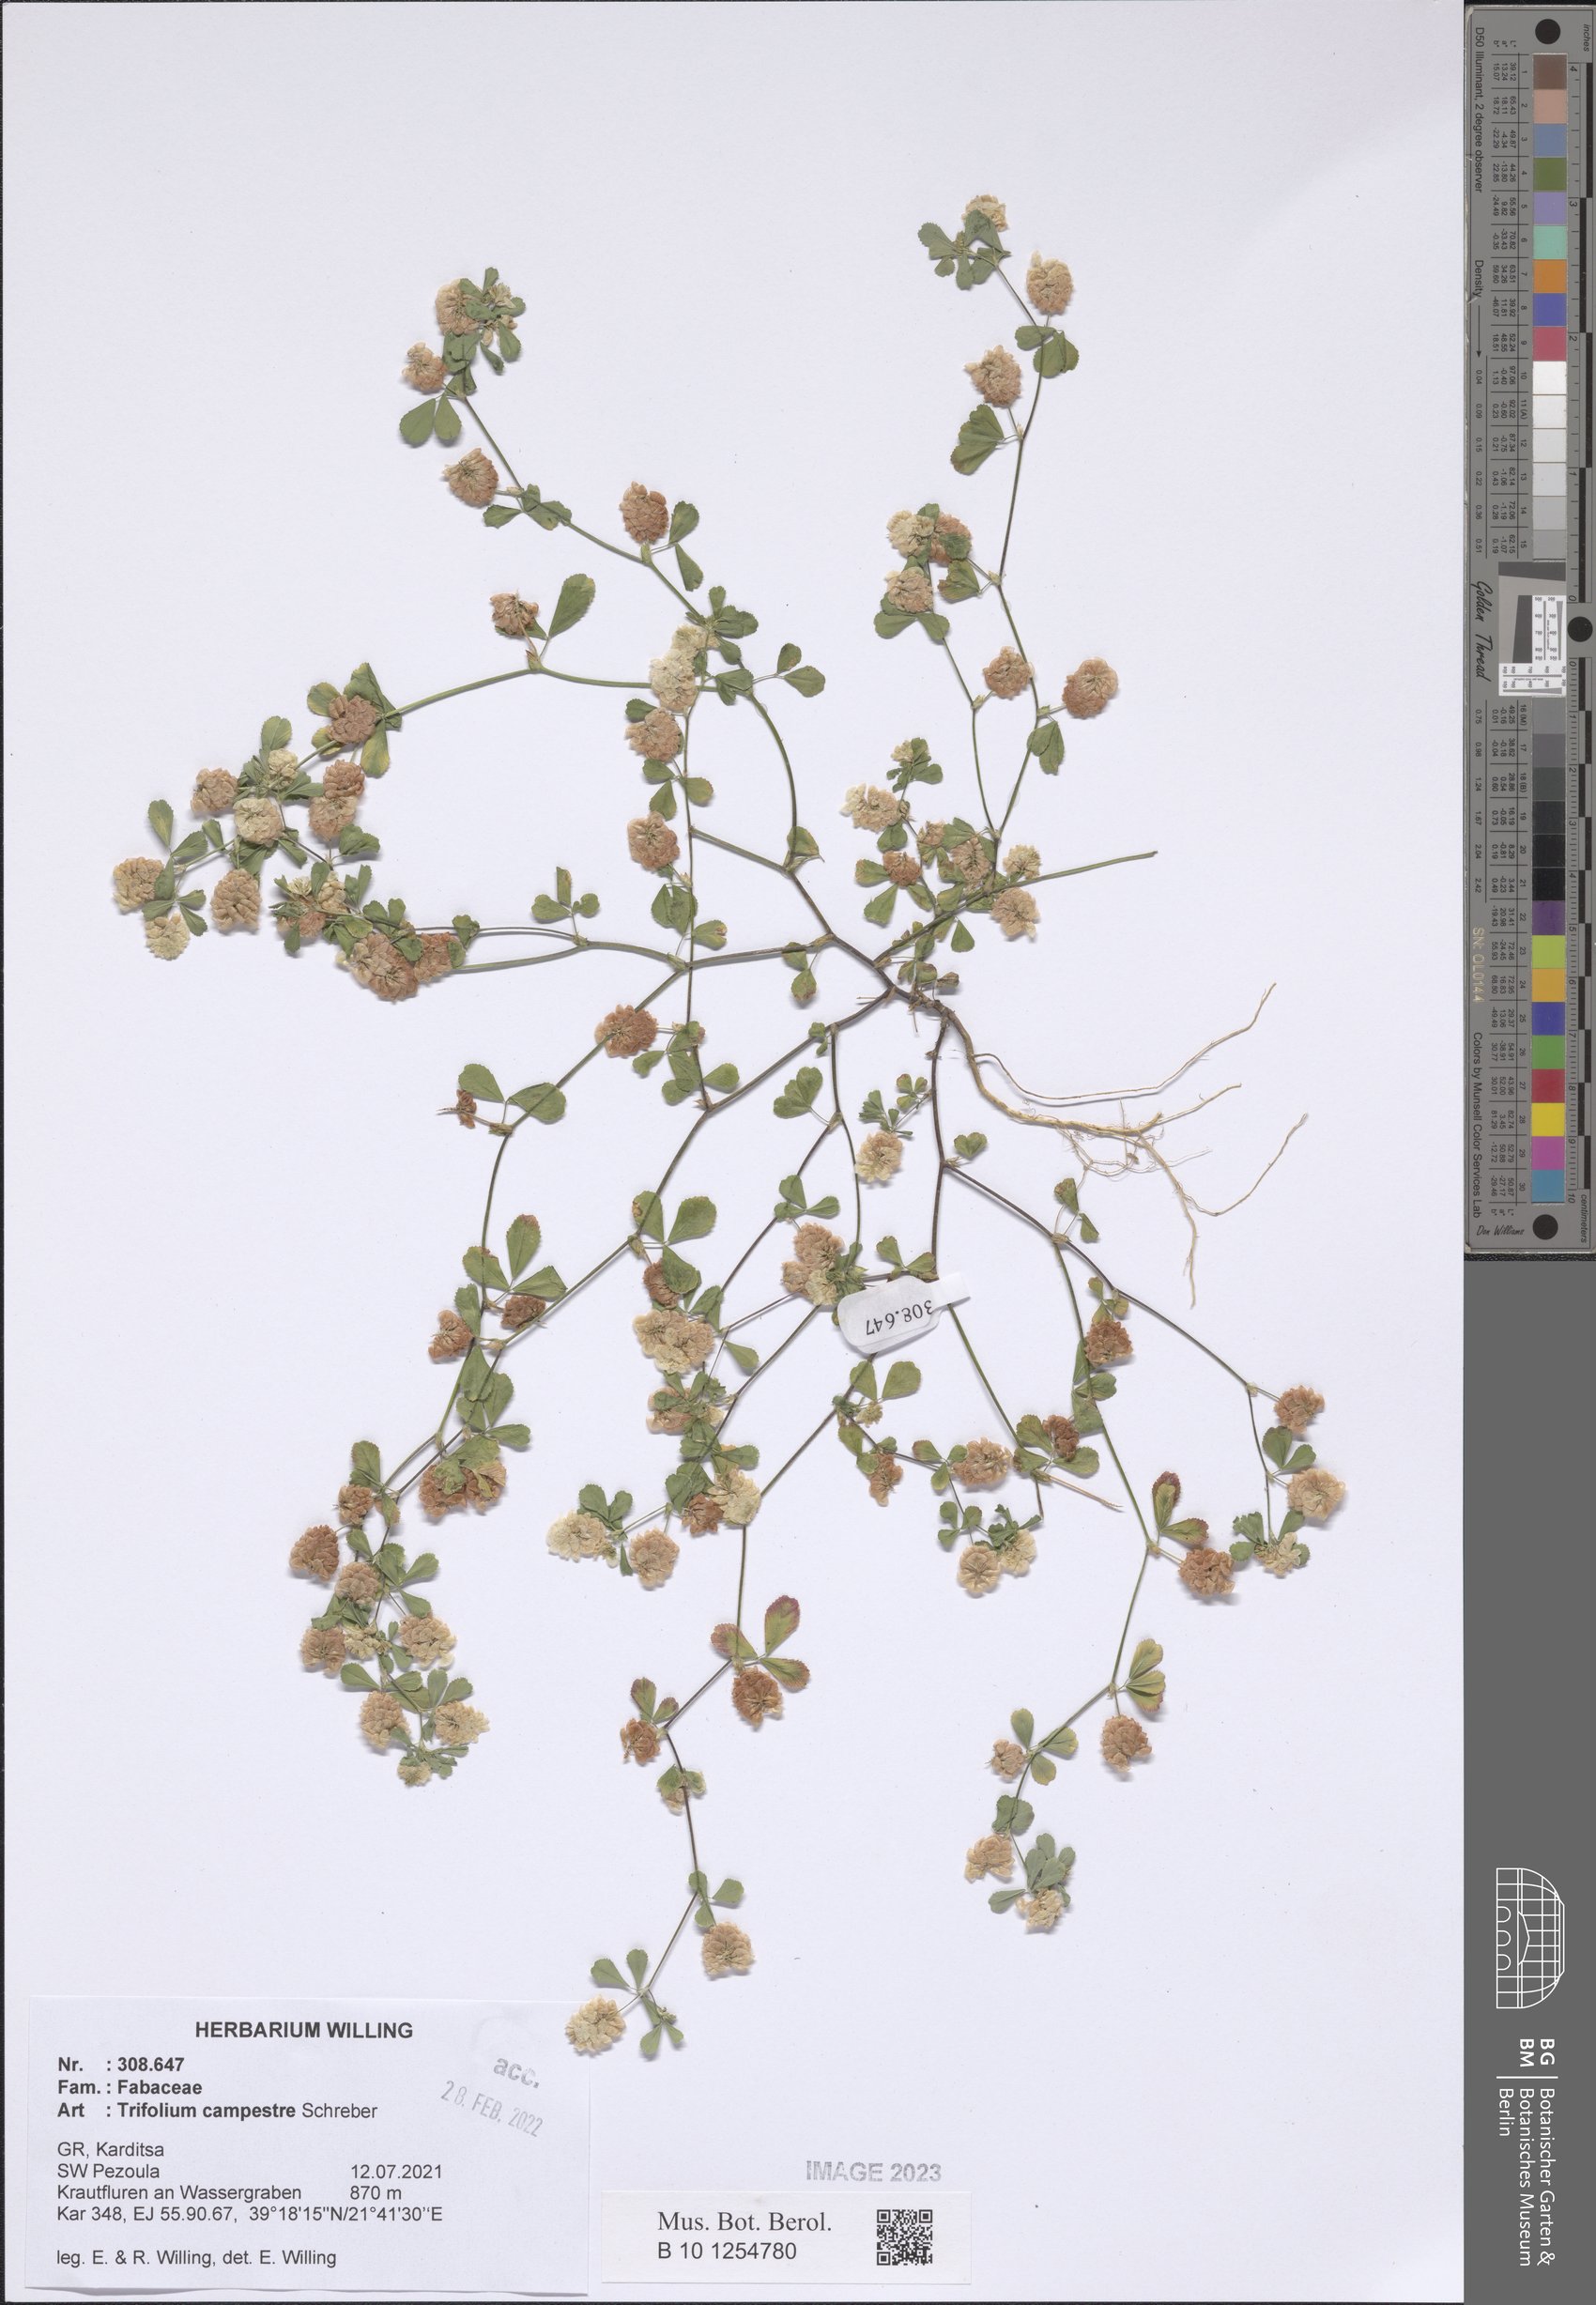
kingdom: Plantae
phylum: Tracheophyta
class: Magnoliopsida
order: Fabales
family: Fabaceae
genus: Trifolium
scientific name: Trifolium campestre
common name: Field clover
